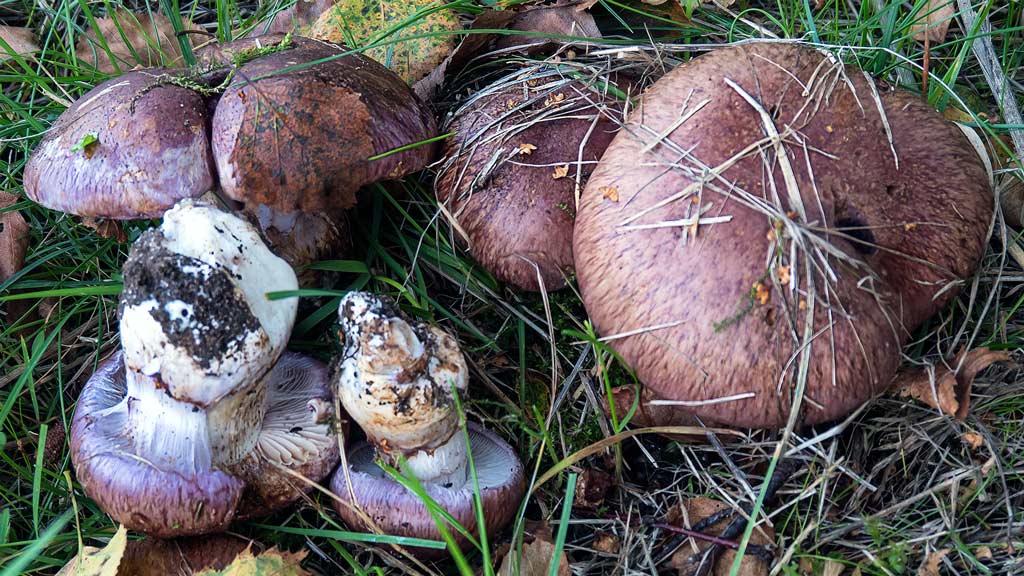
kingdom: Fungi
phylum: Basidiomycota
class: Agaricomycetes
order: Agaricales
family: Cortinariaceae
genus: Phlegmacium
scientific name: Phlegmacium balteatocumatile
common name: violettrådet slørhat
